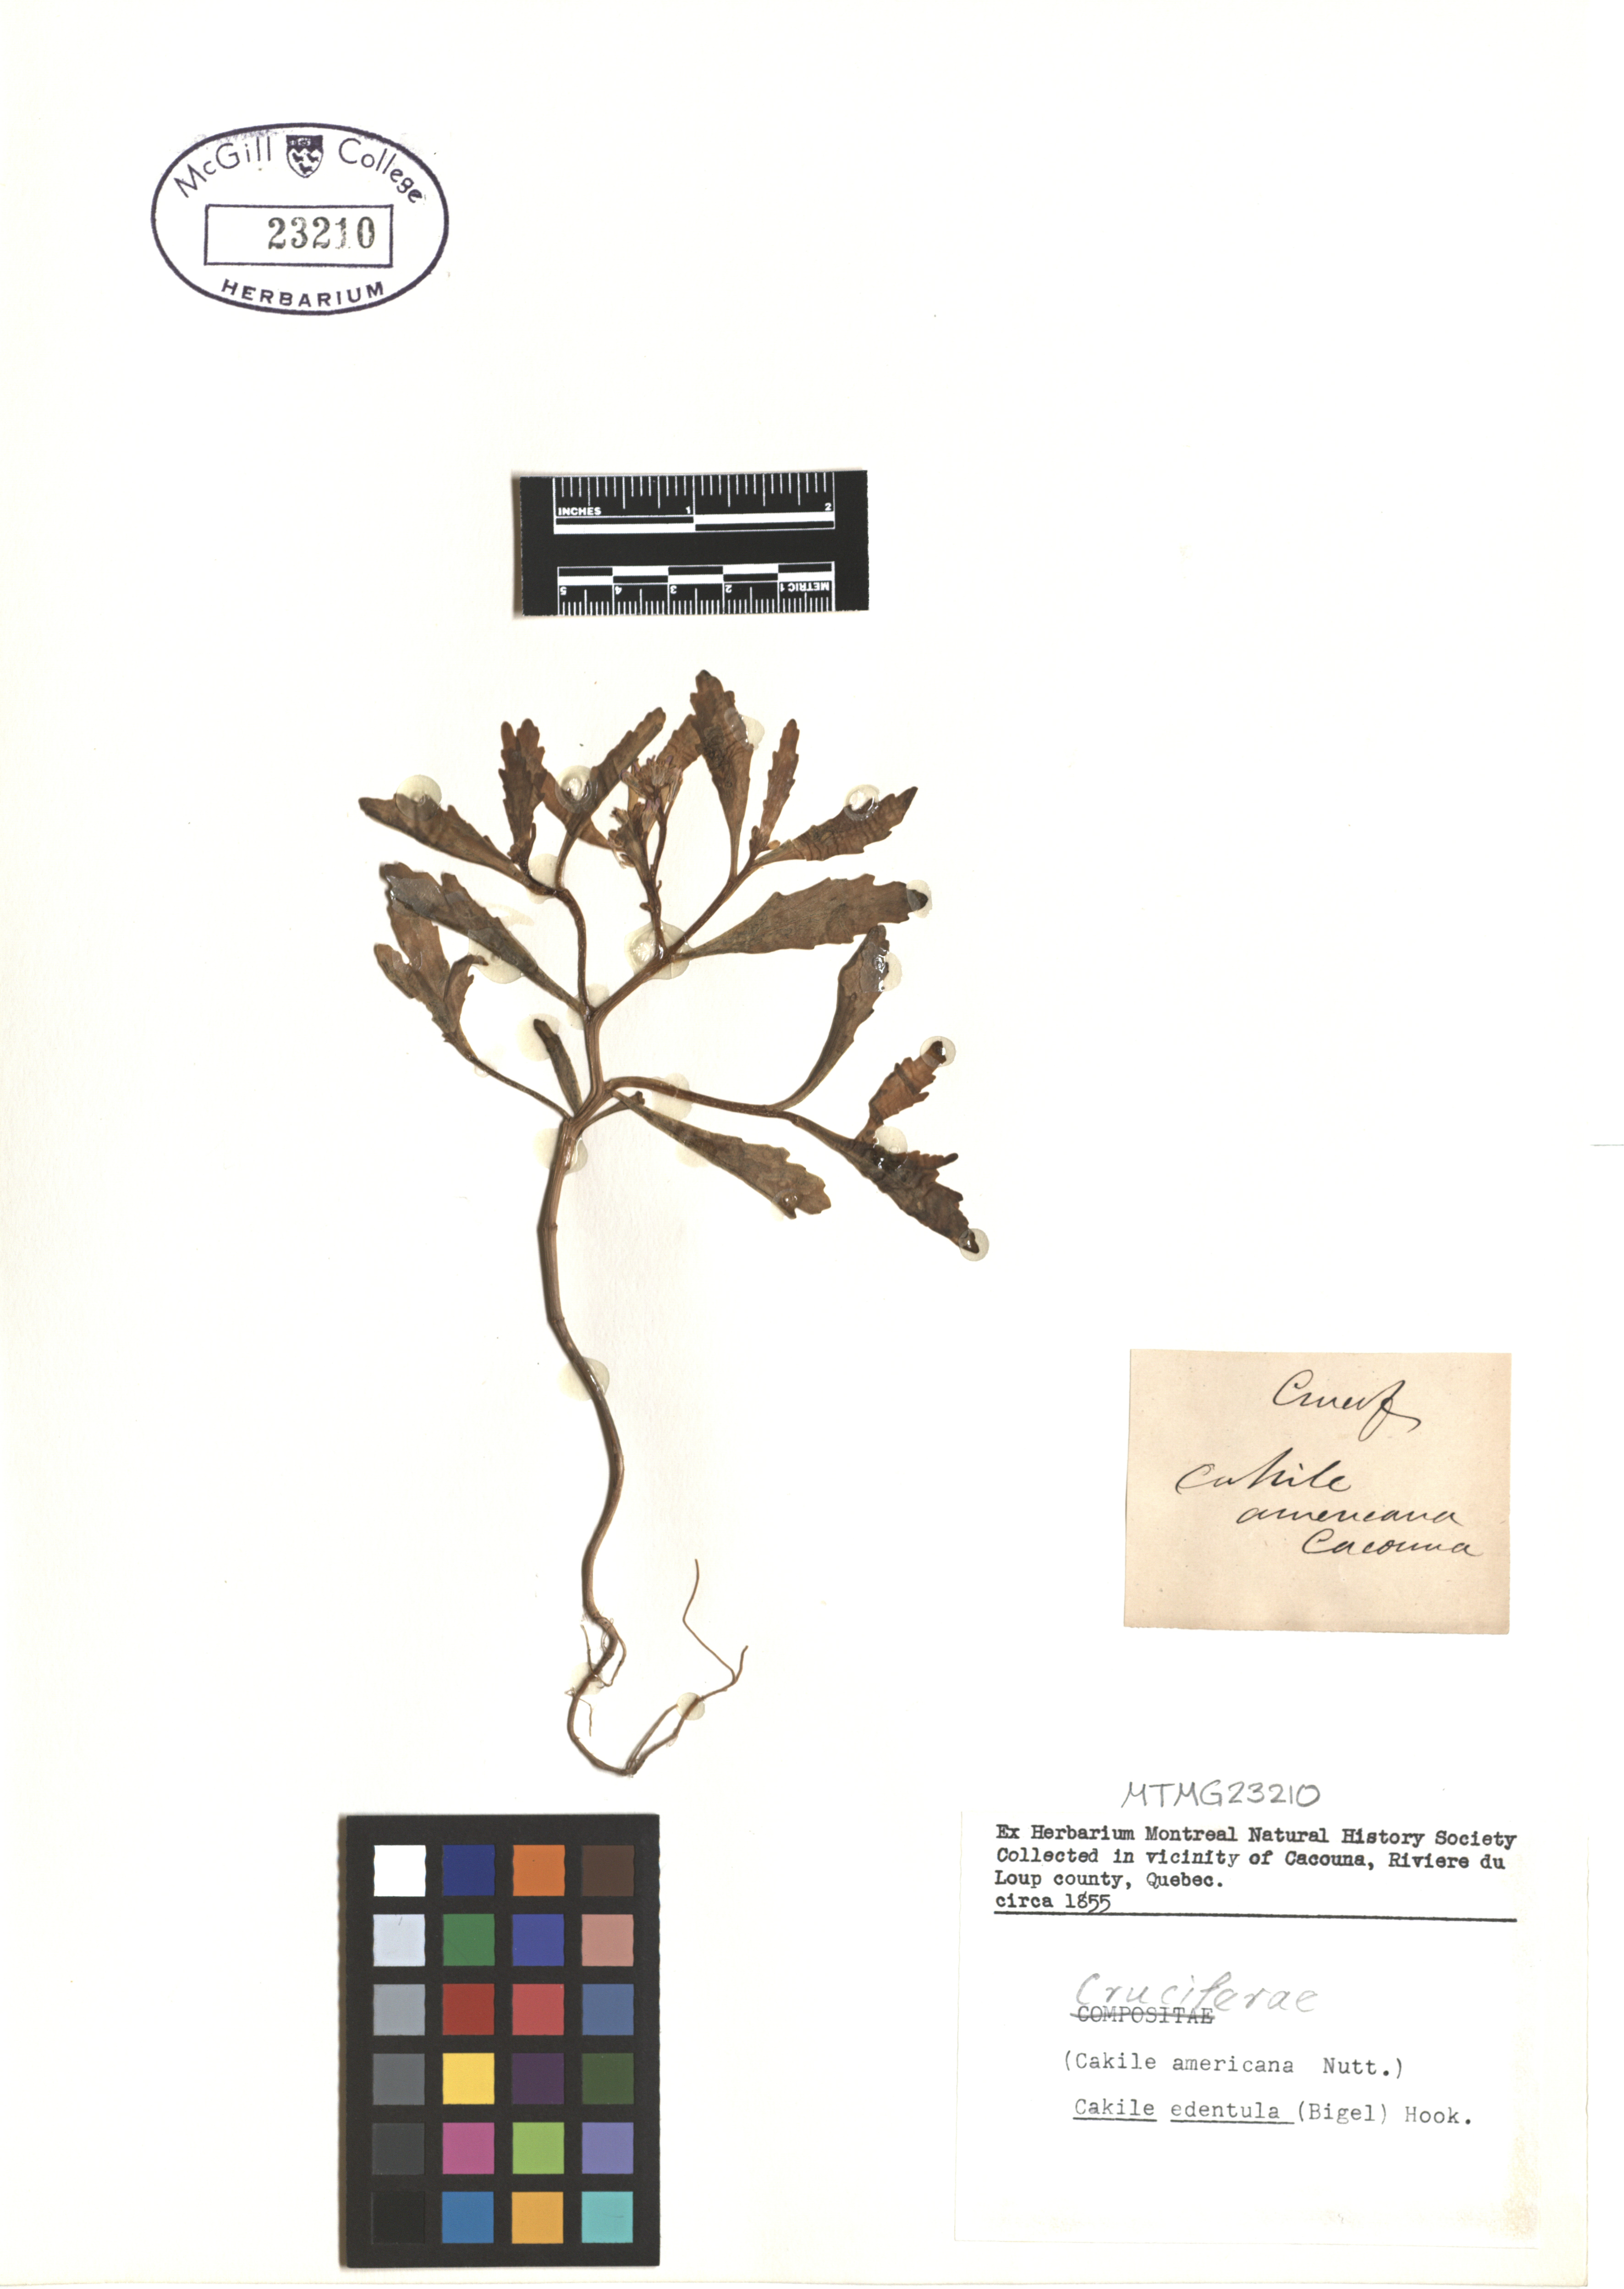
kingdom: Plantae
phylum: Tracheophyta
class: Magnoliopsida
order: Brassicales
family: Brassicaceae
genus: Cakile
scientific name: Cakile edentula
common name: American sea rocket
